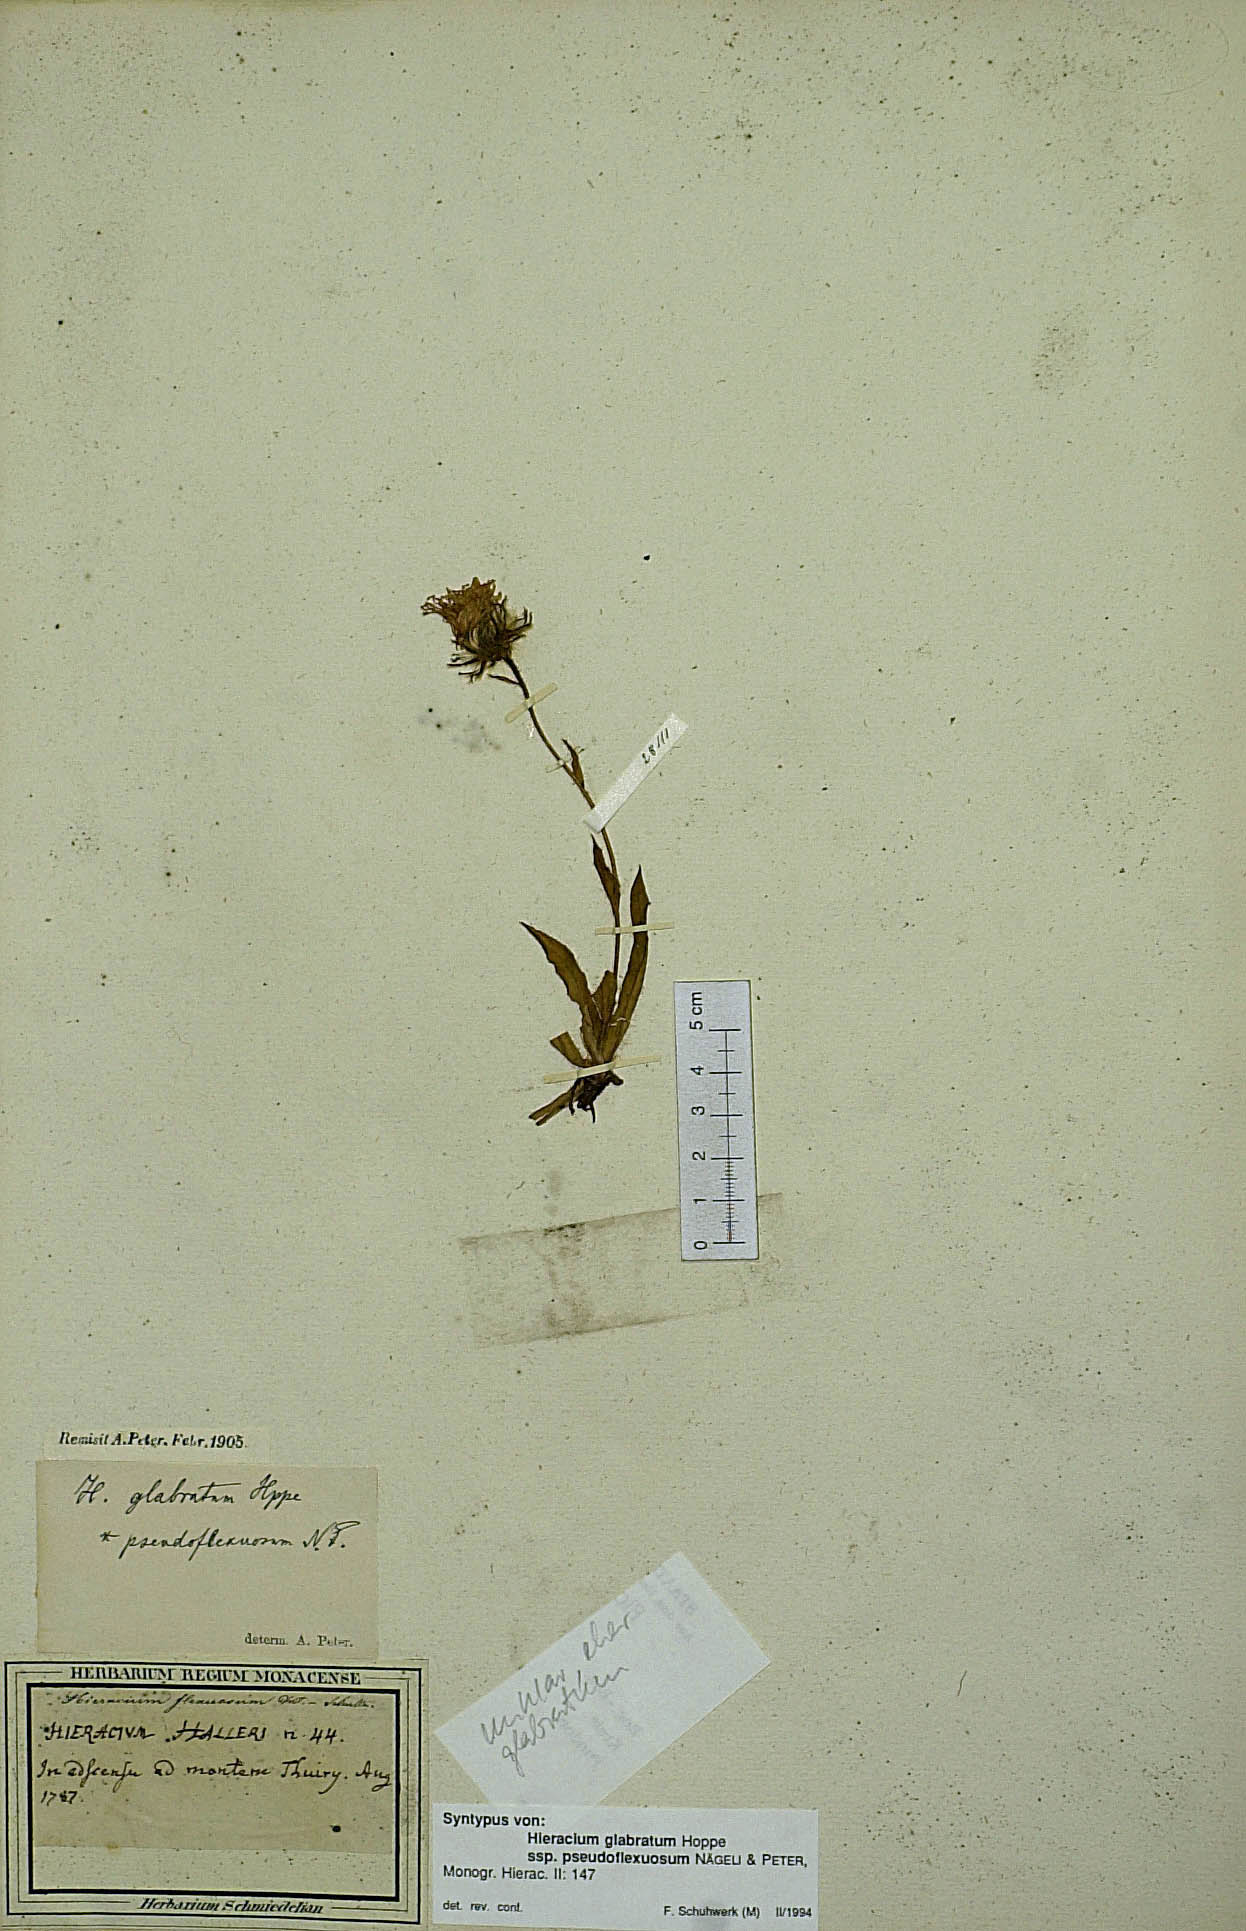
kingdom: Plantae
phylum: Tracheophyta
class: Magnoliopsida
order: Asterales
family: Asteraceae
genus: Hieracium
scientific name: Hieracium glabratum
